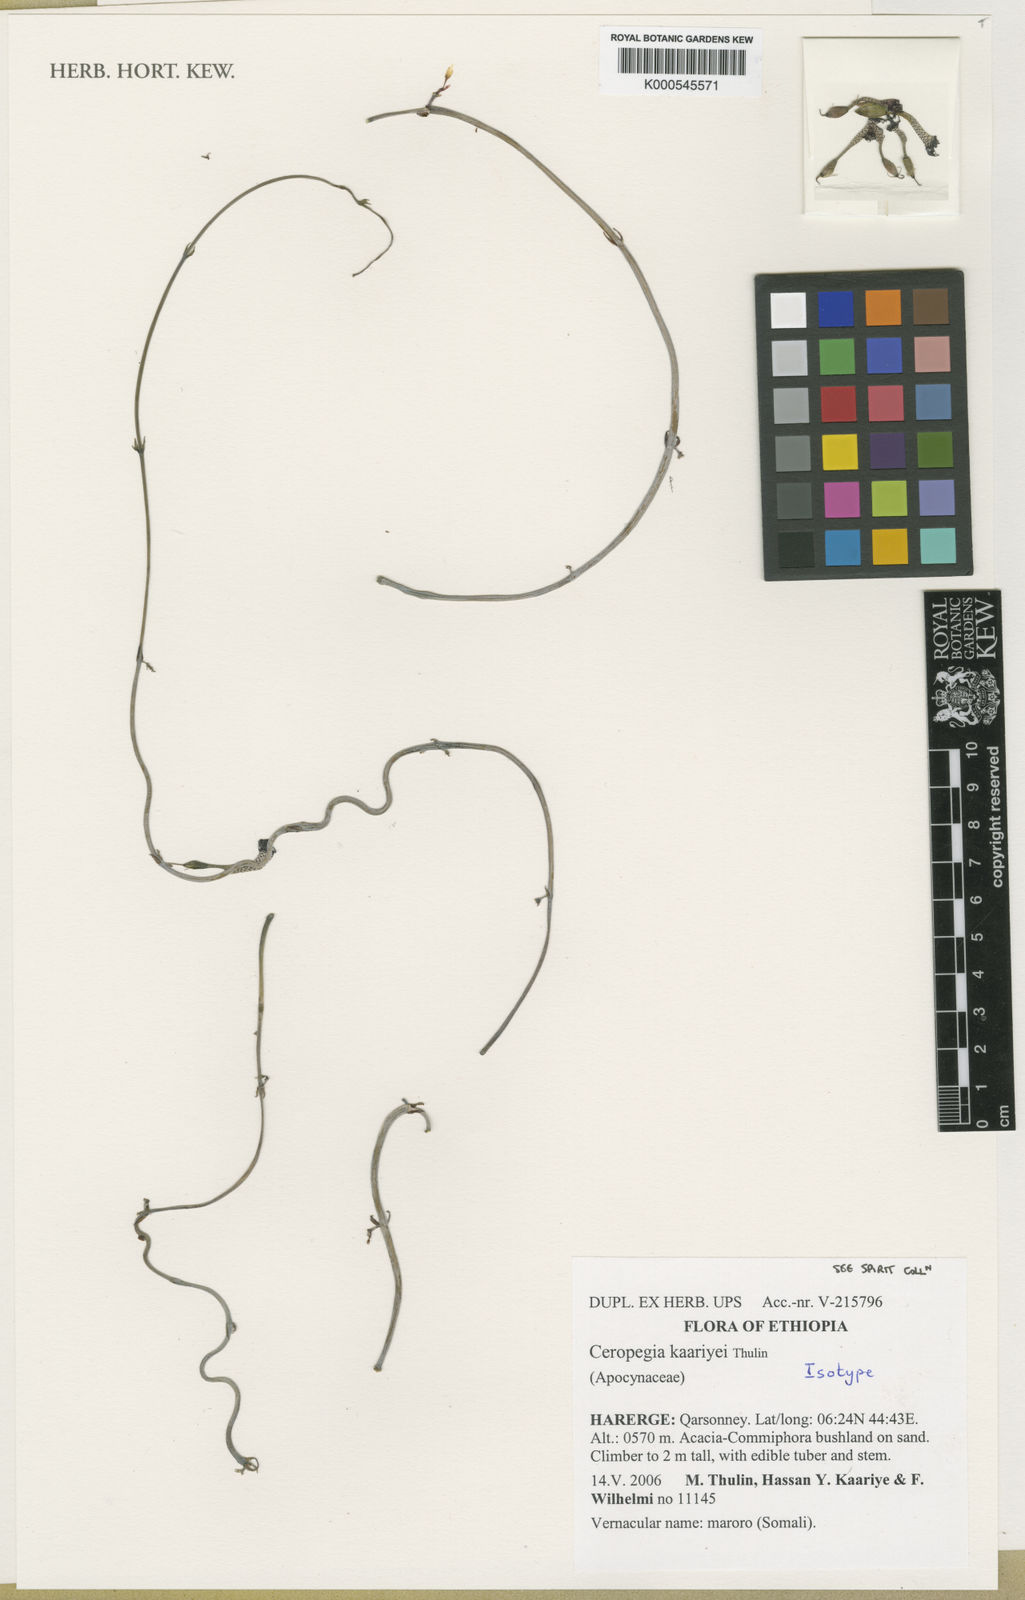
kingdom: Plantae
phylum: Tracheophyta
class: Magnoliopsida
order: Gentianales
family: Apocynaceae
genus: Ceropegia
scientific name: Ceropegia kaariyei
